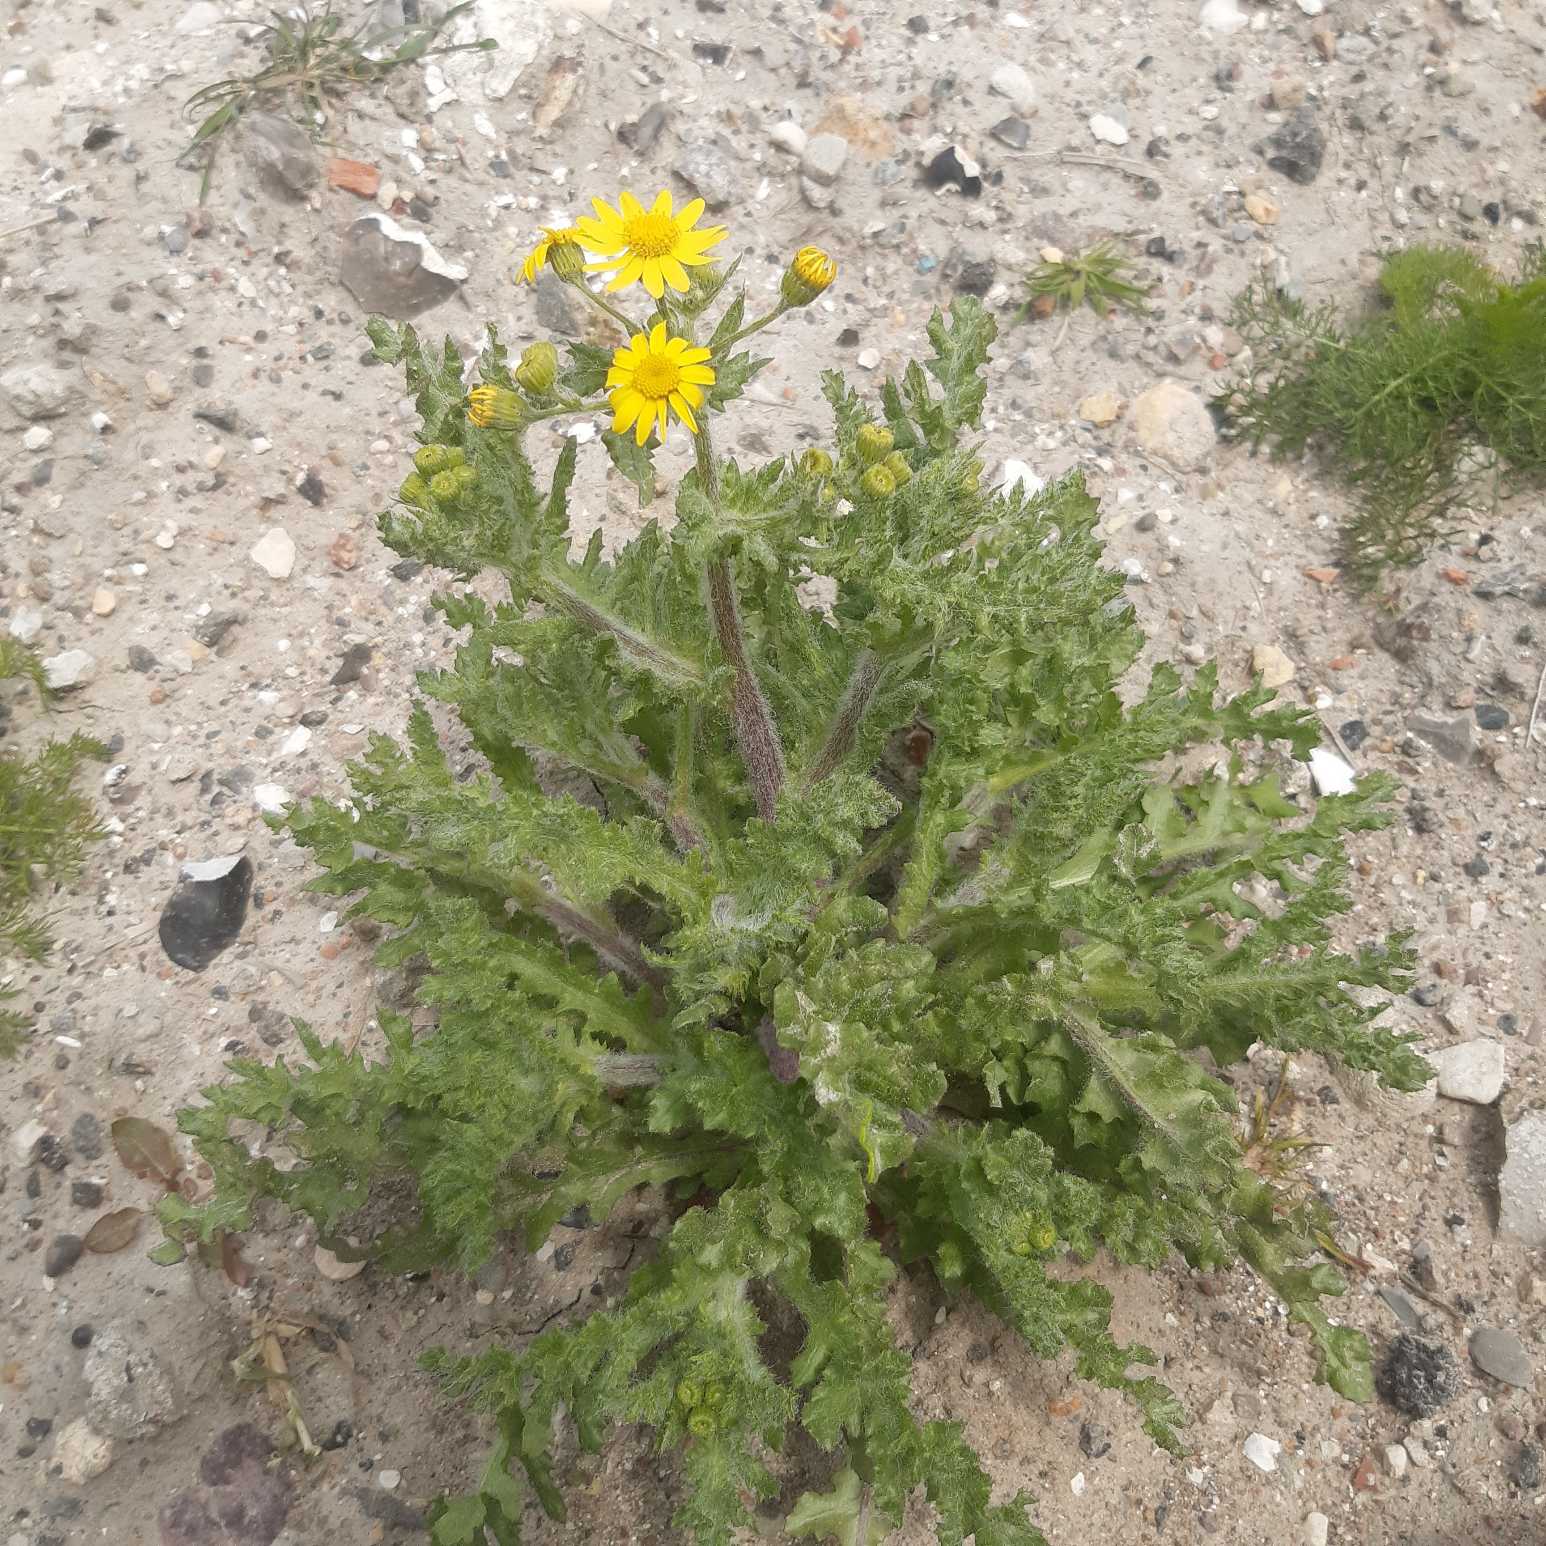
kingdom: Plantae
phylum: Tracheophyta
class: Magnoliopsida
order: Asterales
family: Asteraceae
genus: Senecio
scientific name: Senecio leucanthemifolius
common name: Vår-brandbæger
